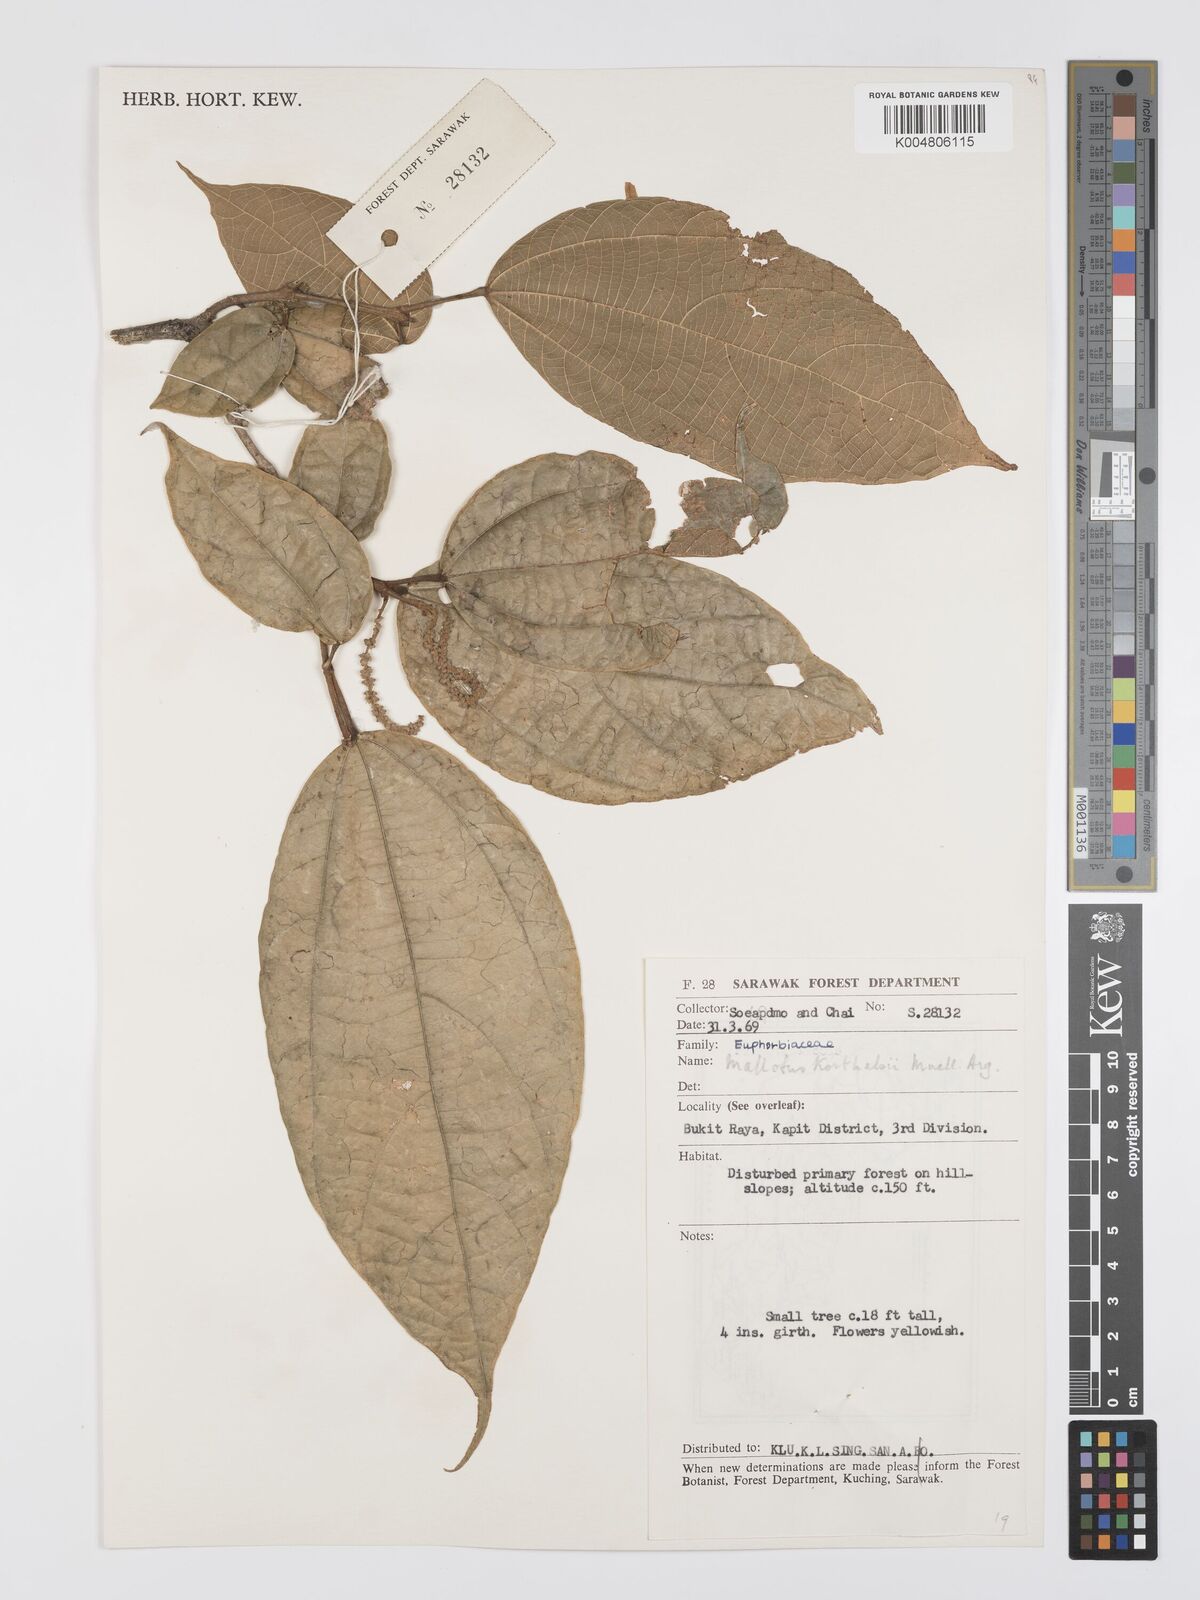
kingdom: Plantae
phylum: Tracheophyta
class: Magnoliopsida
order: Malpighiales
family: Euphorbiaceae
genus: Mallotus
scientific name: Mallotus korthalsii
